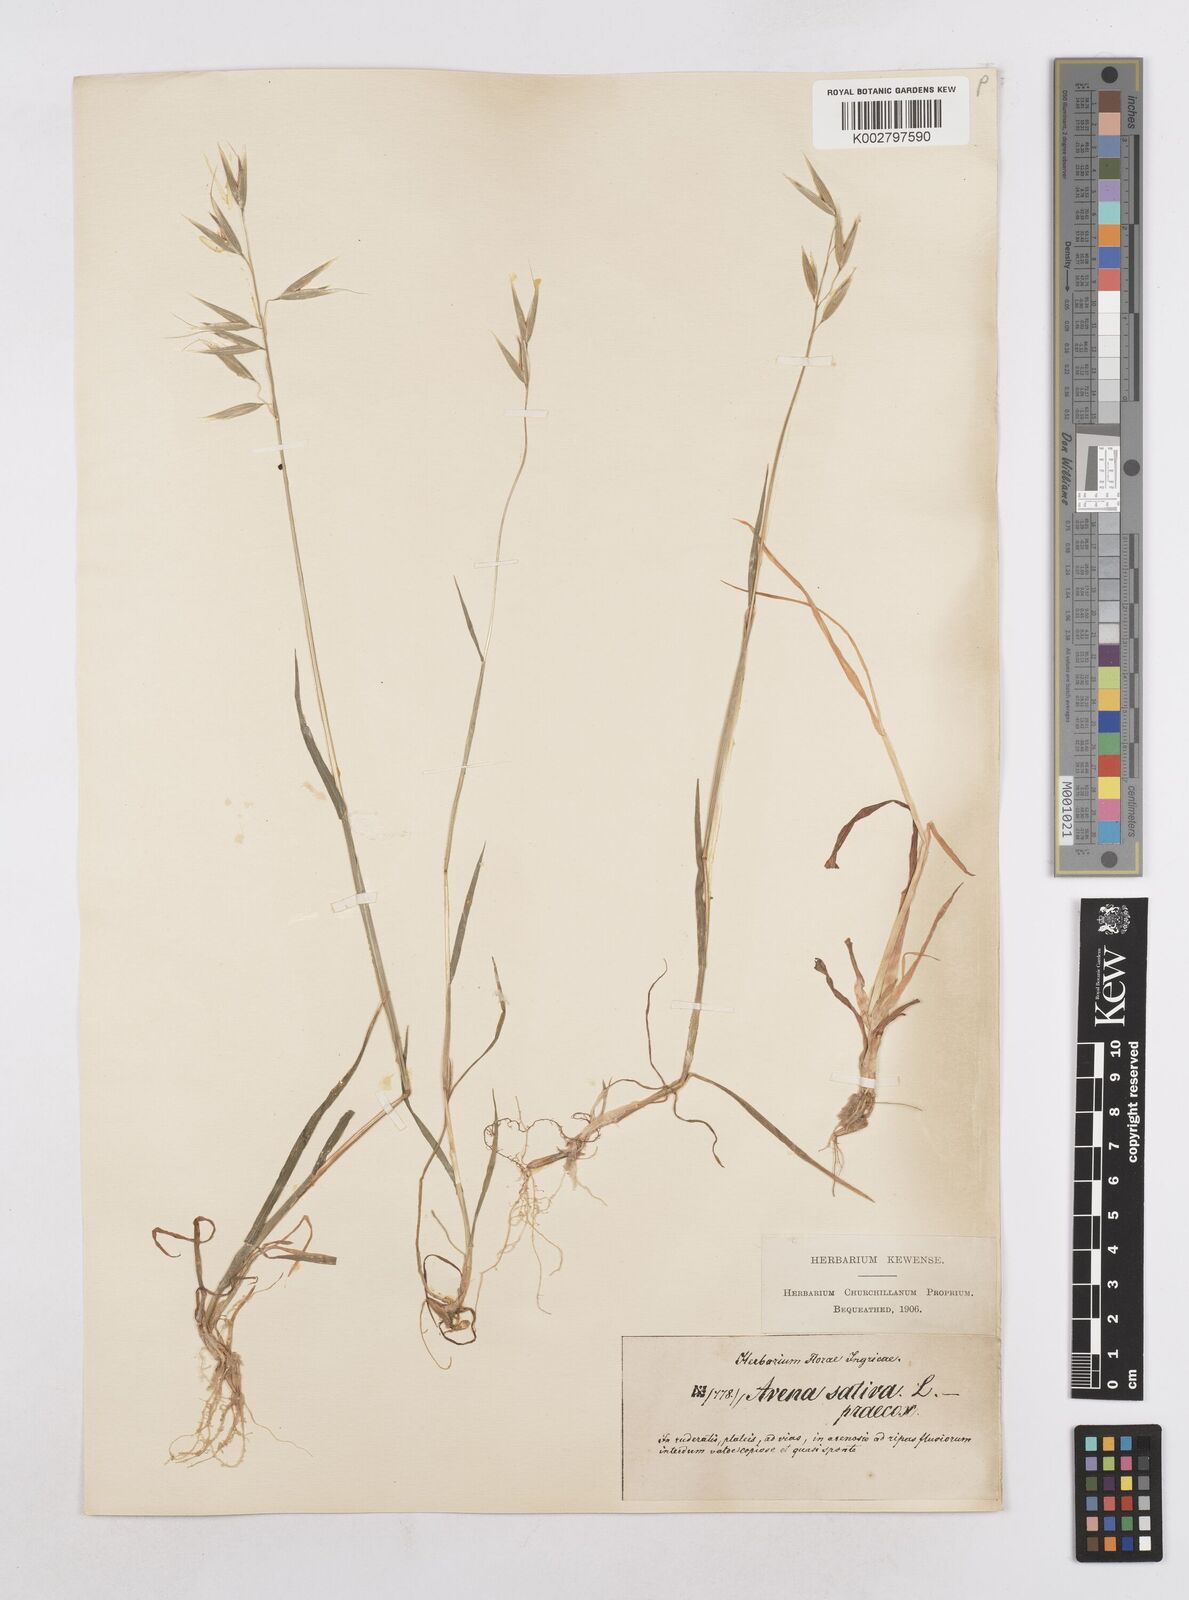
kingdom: Plantae
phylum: Tracheophyta
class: Liliopsida
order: Poales
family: Poaceae
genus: Avena
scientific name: Avena sativa
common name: Oat
